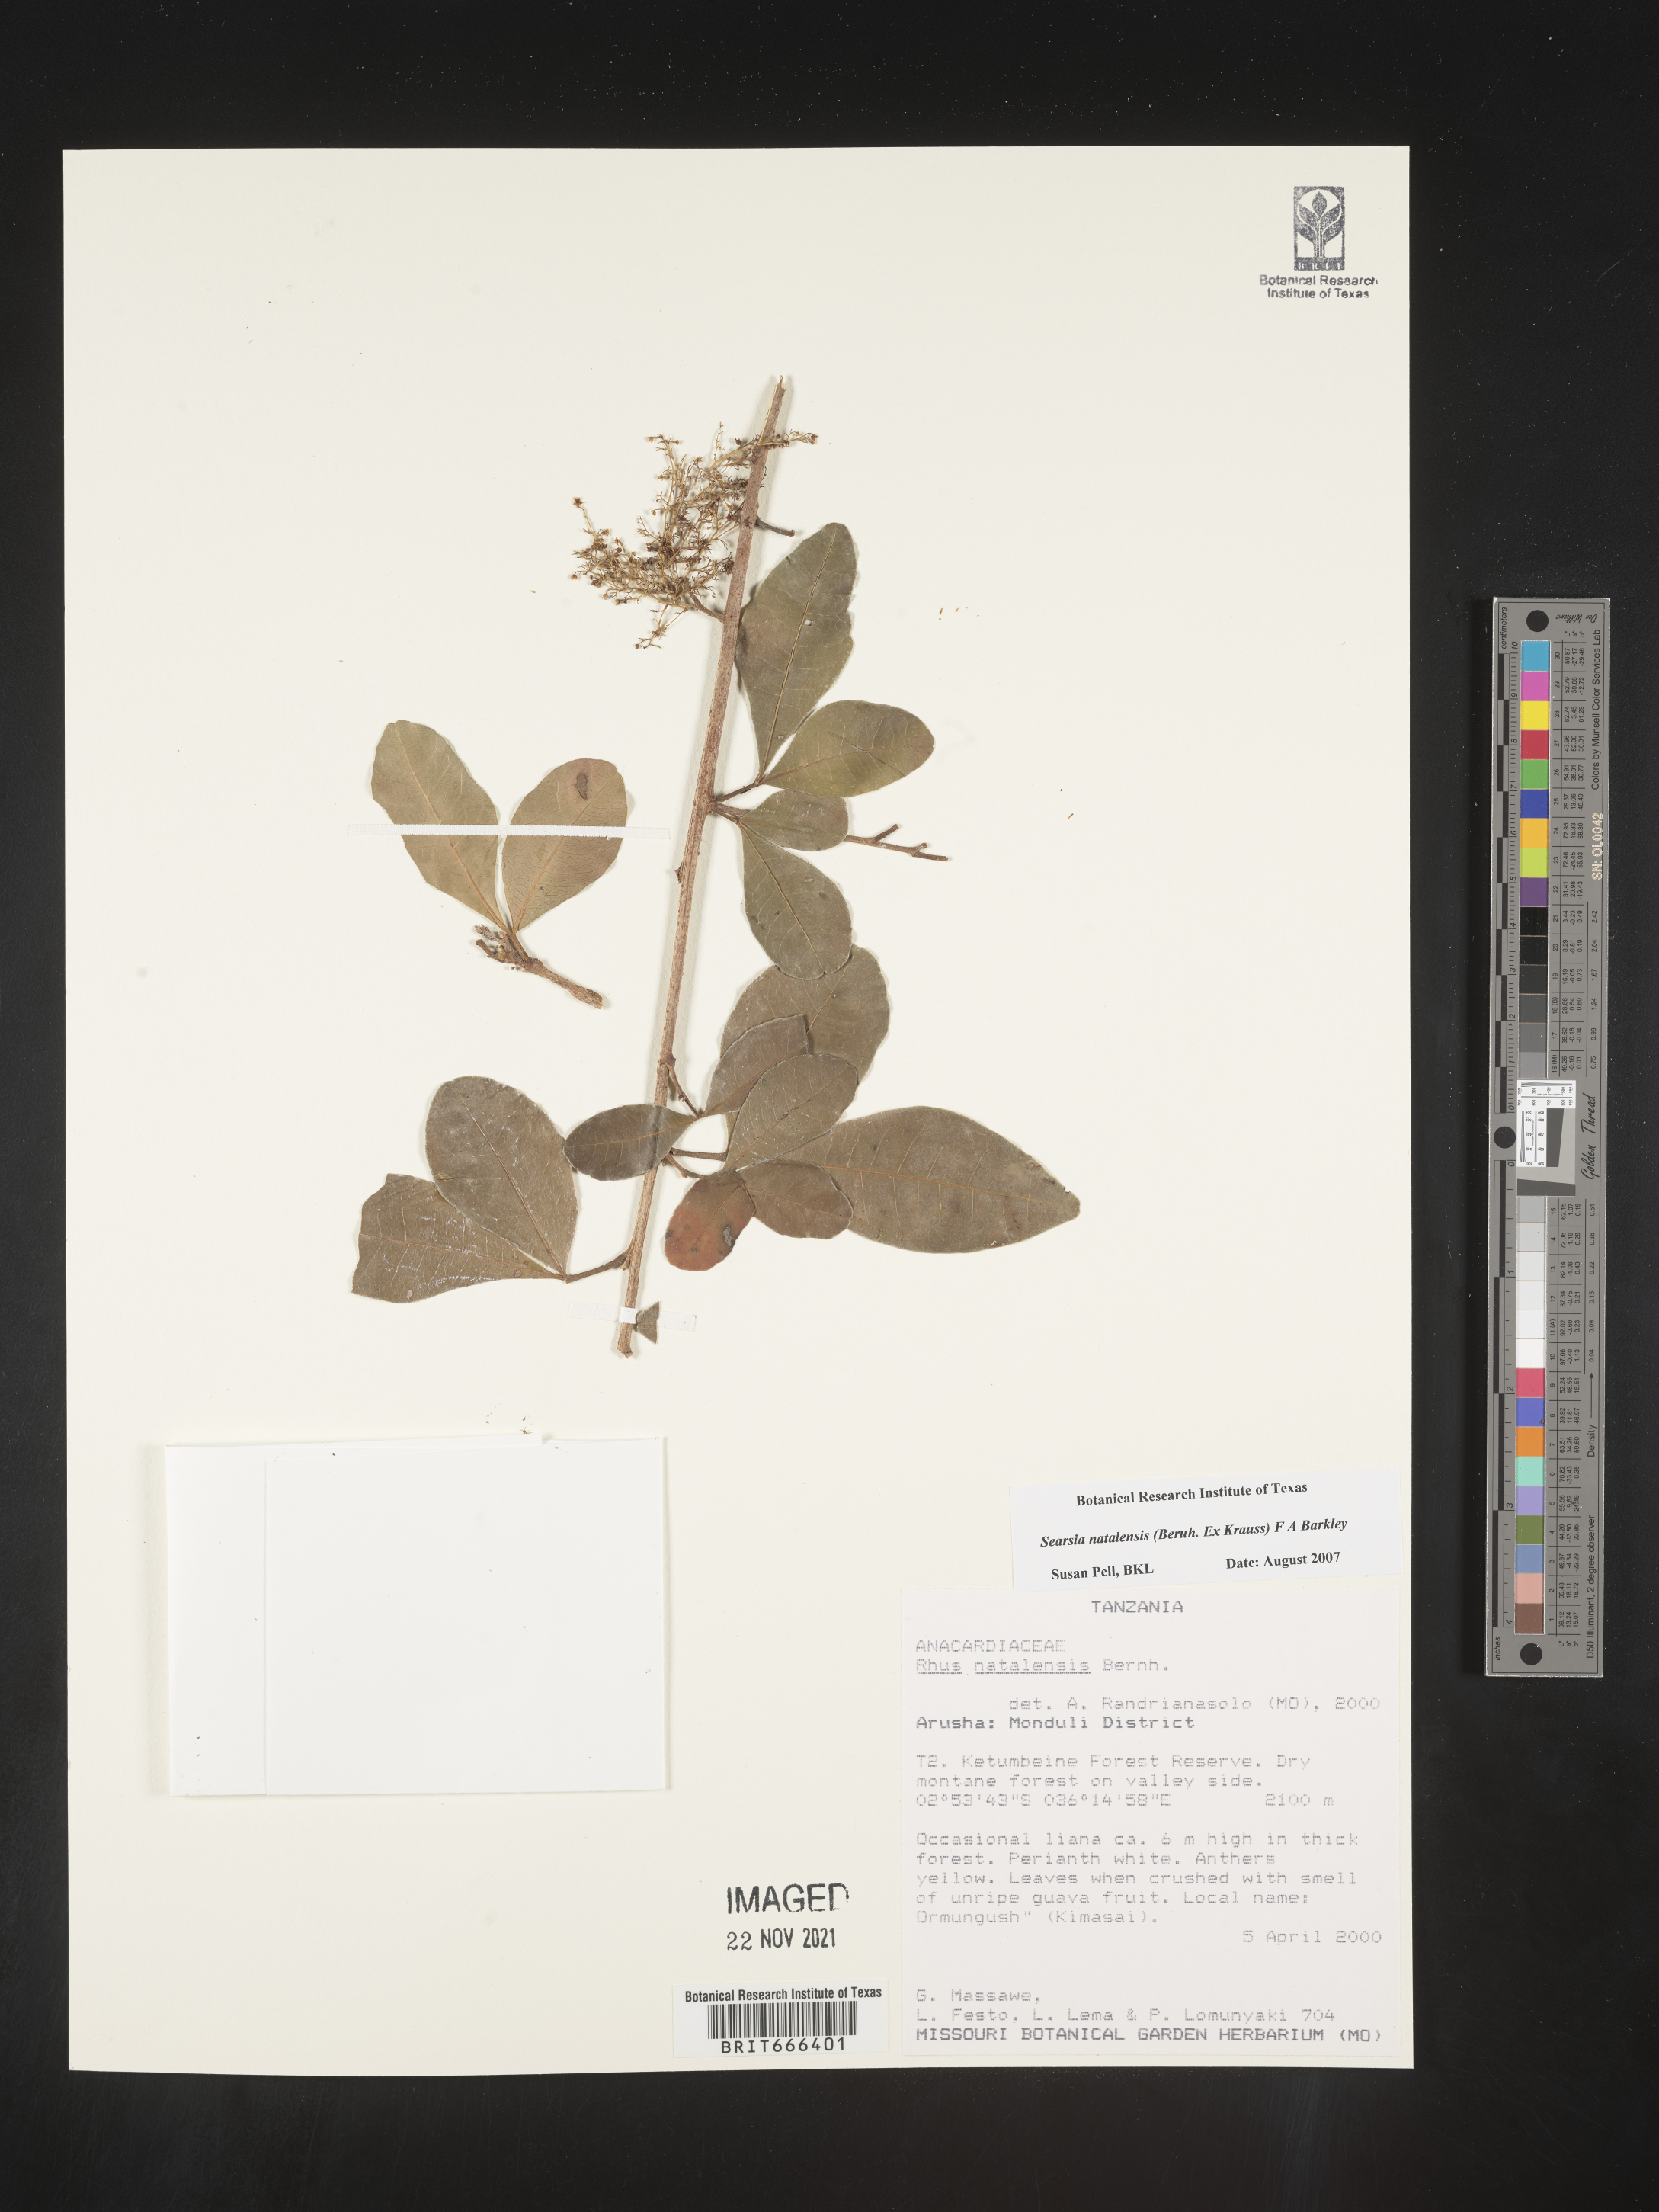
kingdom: Plantae
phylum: Tracheophyta
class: Magnoliopsida
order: Sapindales
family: Anacardiaceae
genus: Searsia
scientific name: Searsia natalensis
